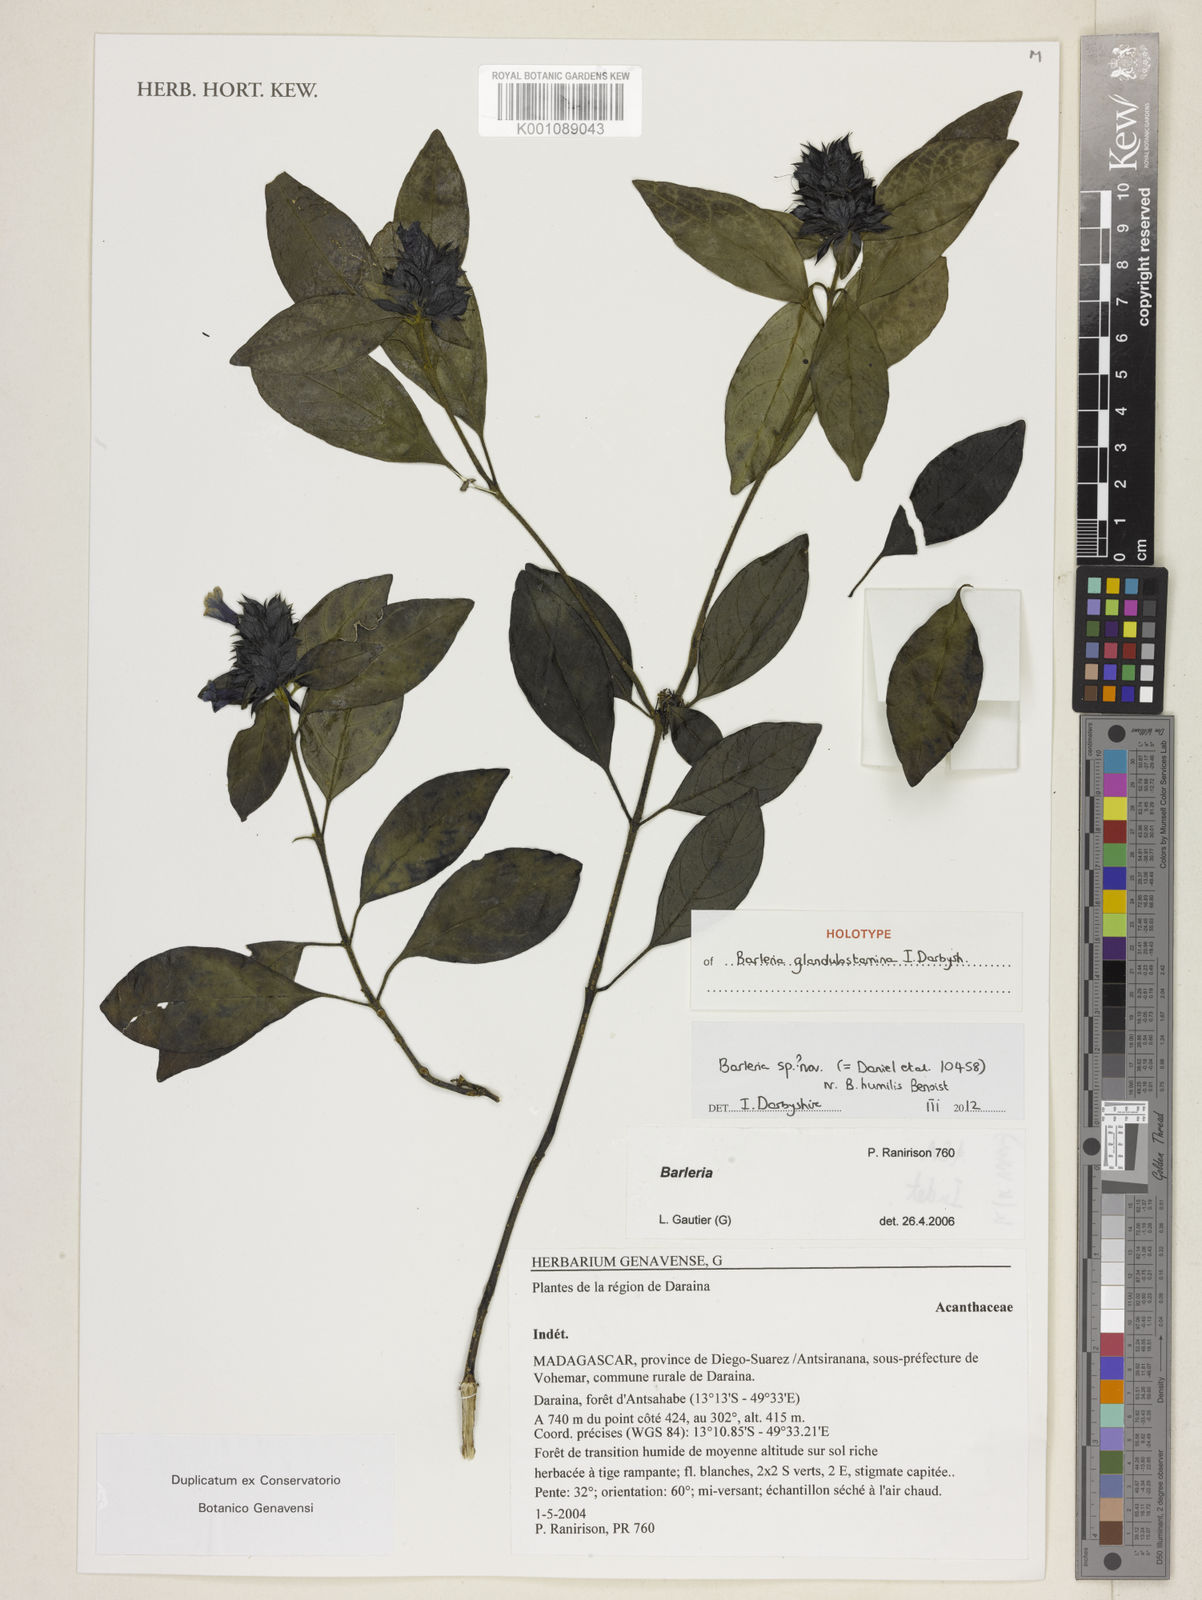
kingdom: Plantae
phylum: Tracheophyta
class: Magnoliopsida
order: Lamiales
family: Acanthaceae
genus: Barleria
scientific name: Barleria glandulostamina
